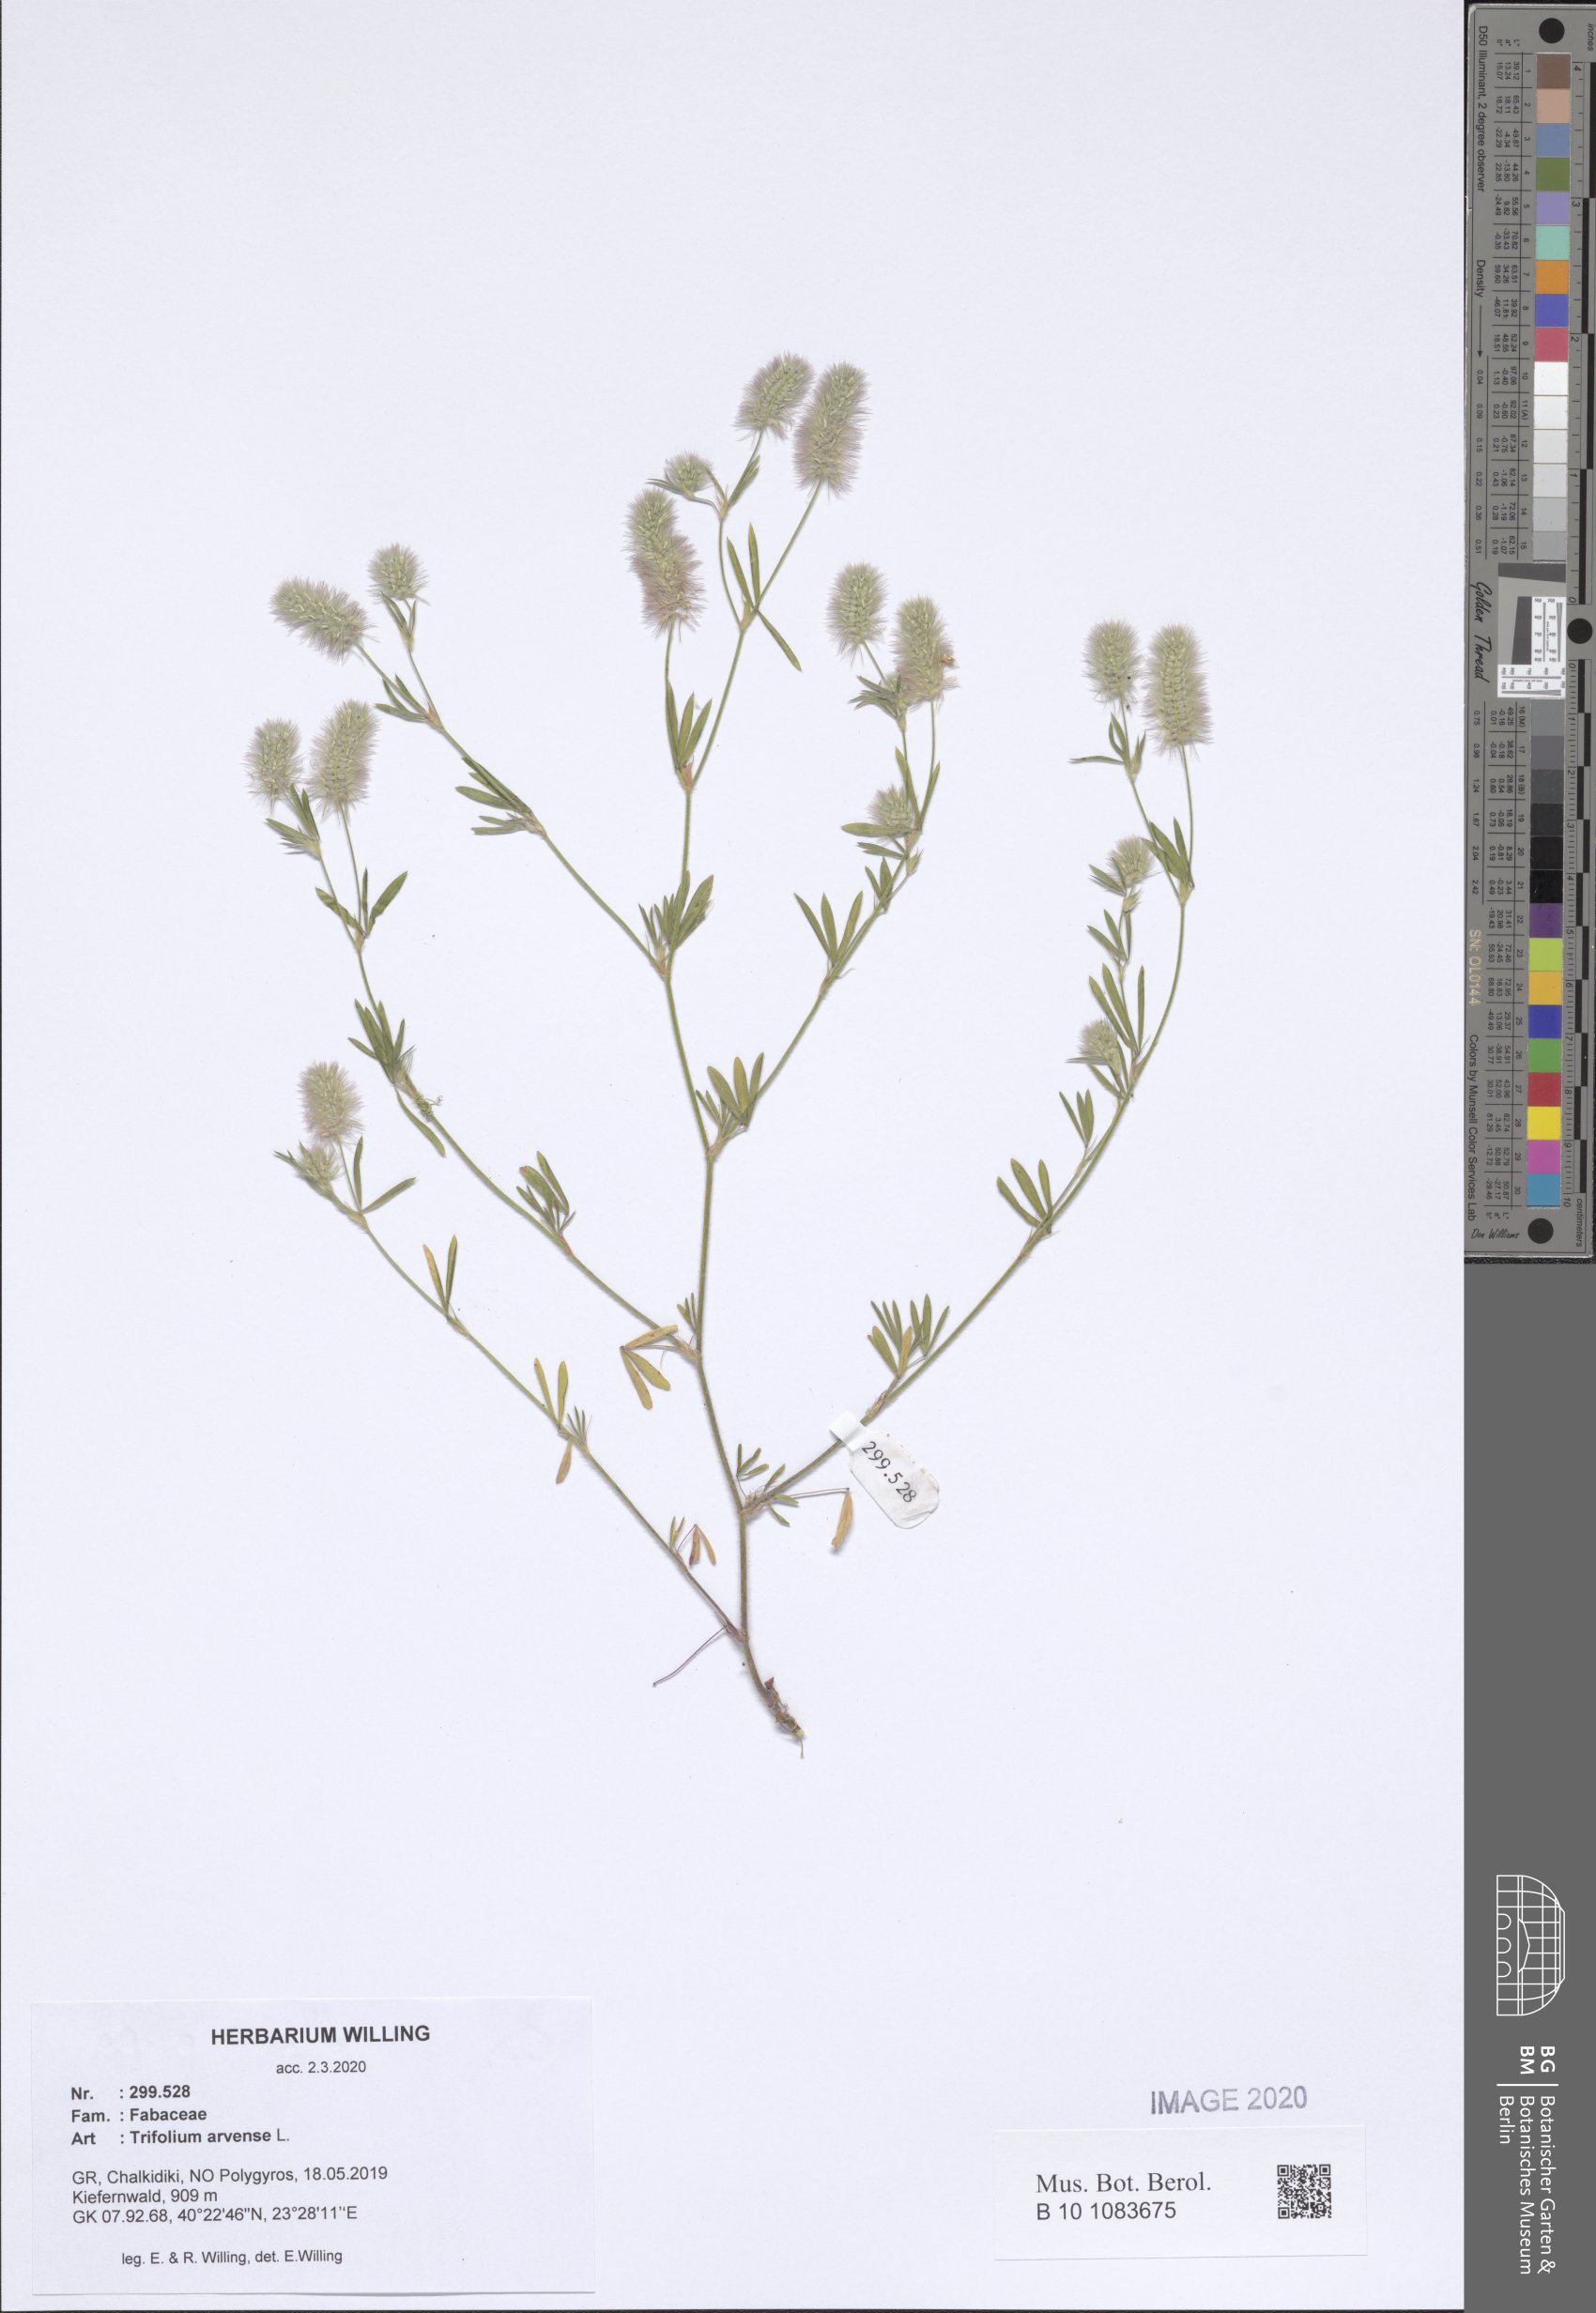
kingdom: Plantae
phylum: Tracheophyta
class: Magnoliopsida
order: Fabales
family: Fabaceae
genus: Trifolium
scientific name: Trifolium arvense
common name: Hare's-foot clover
